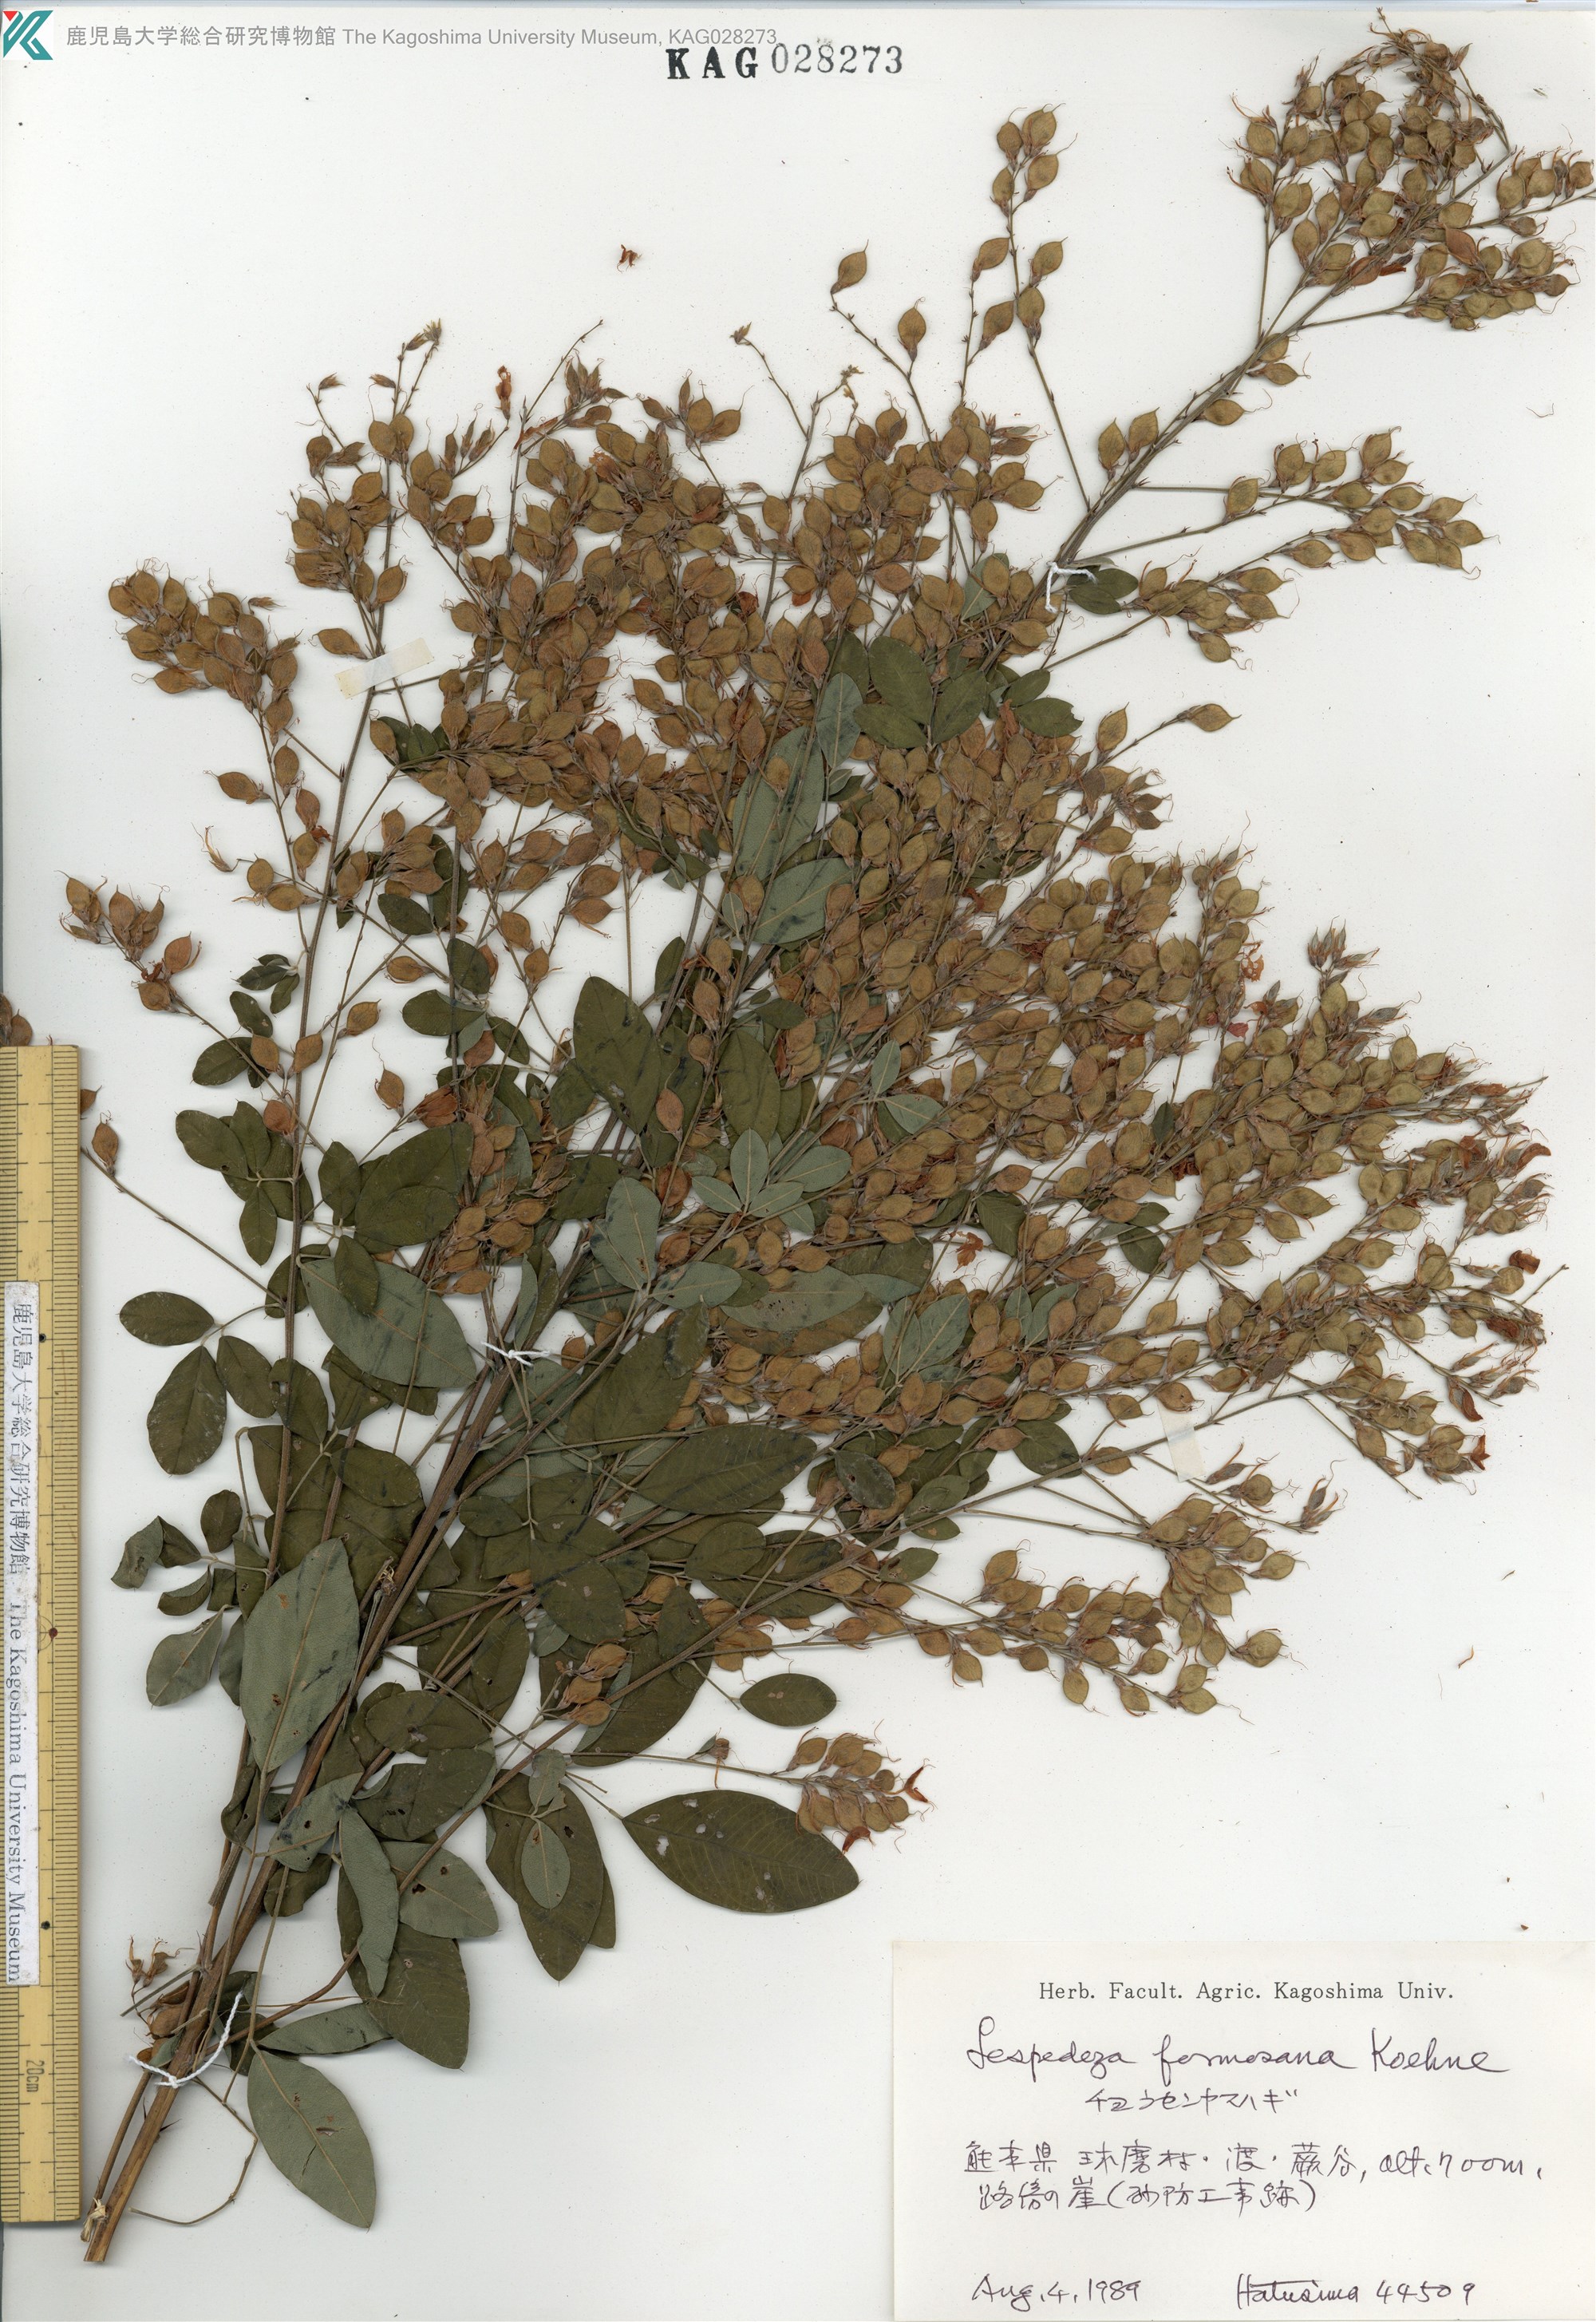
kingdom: Plantae
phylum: Tracheophyta
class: Magnoliopsida
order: Fabales
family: Fabaceae
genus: Lespedeza
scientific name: Lespedeza thunbergii
